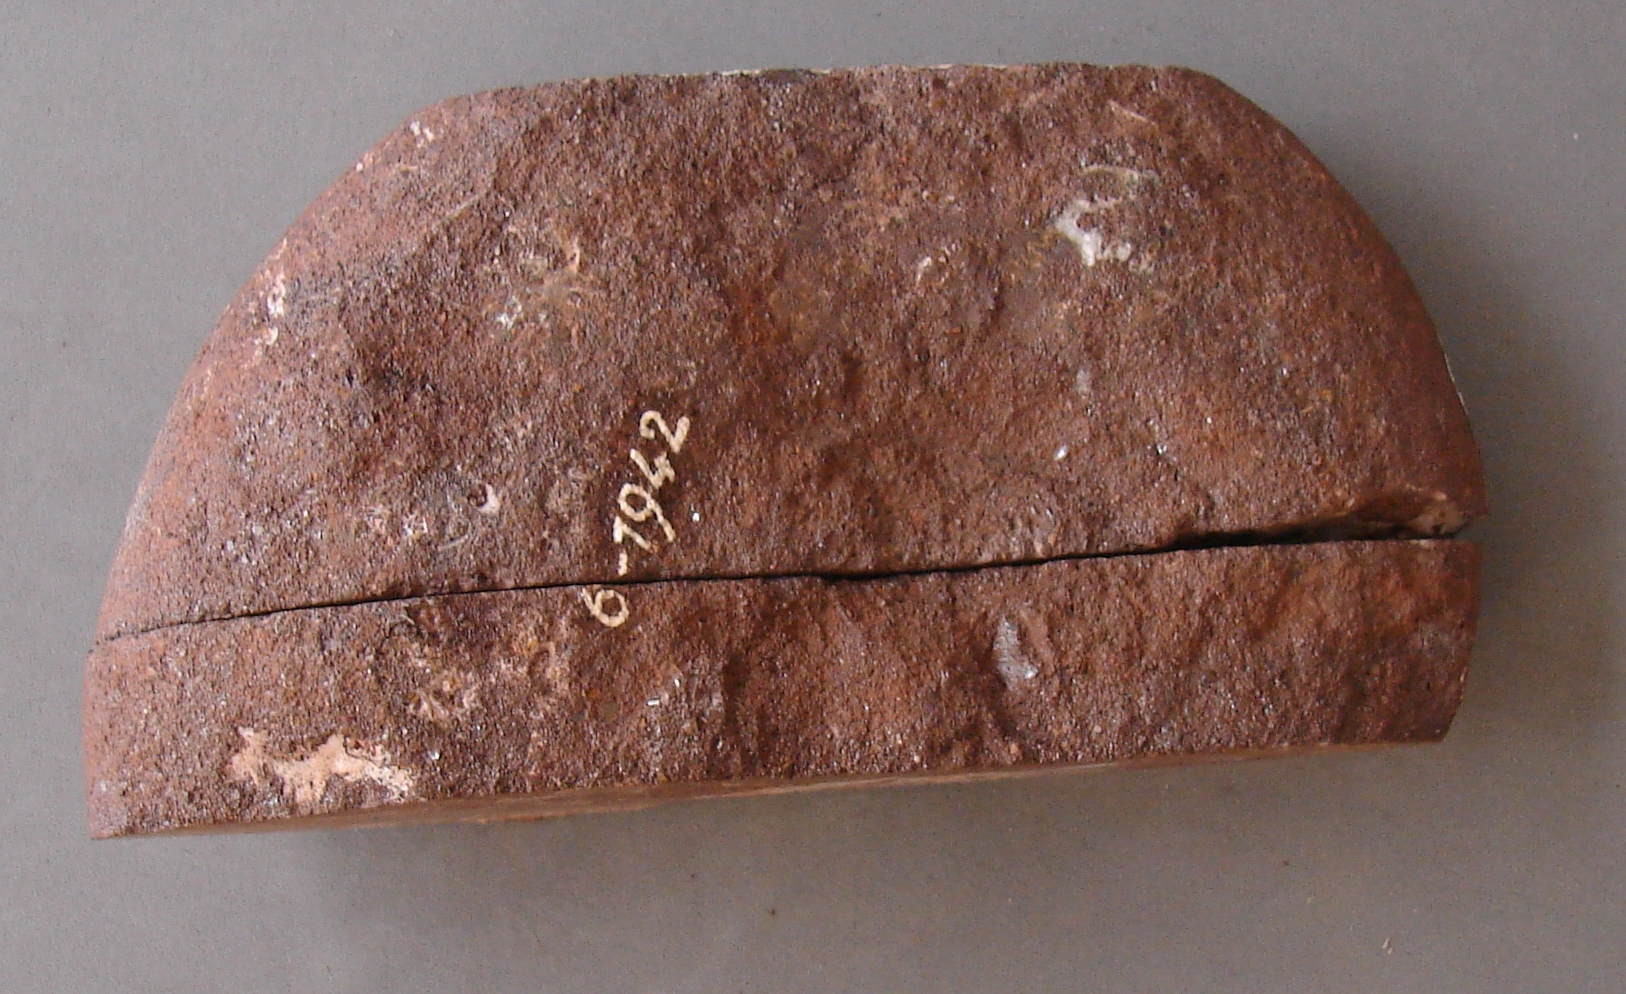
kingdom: Animalia
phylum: Mollusca
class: Cephalopoda
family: Lytoceratidae
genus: Pleurolytoceras
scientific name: Pleurolytoceras wrighti
